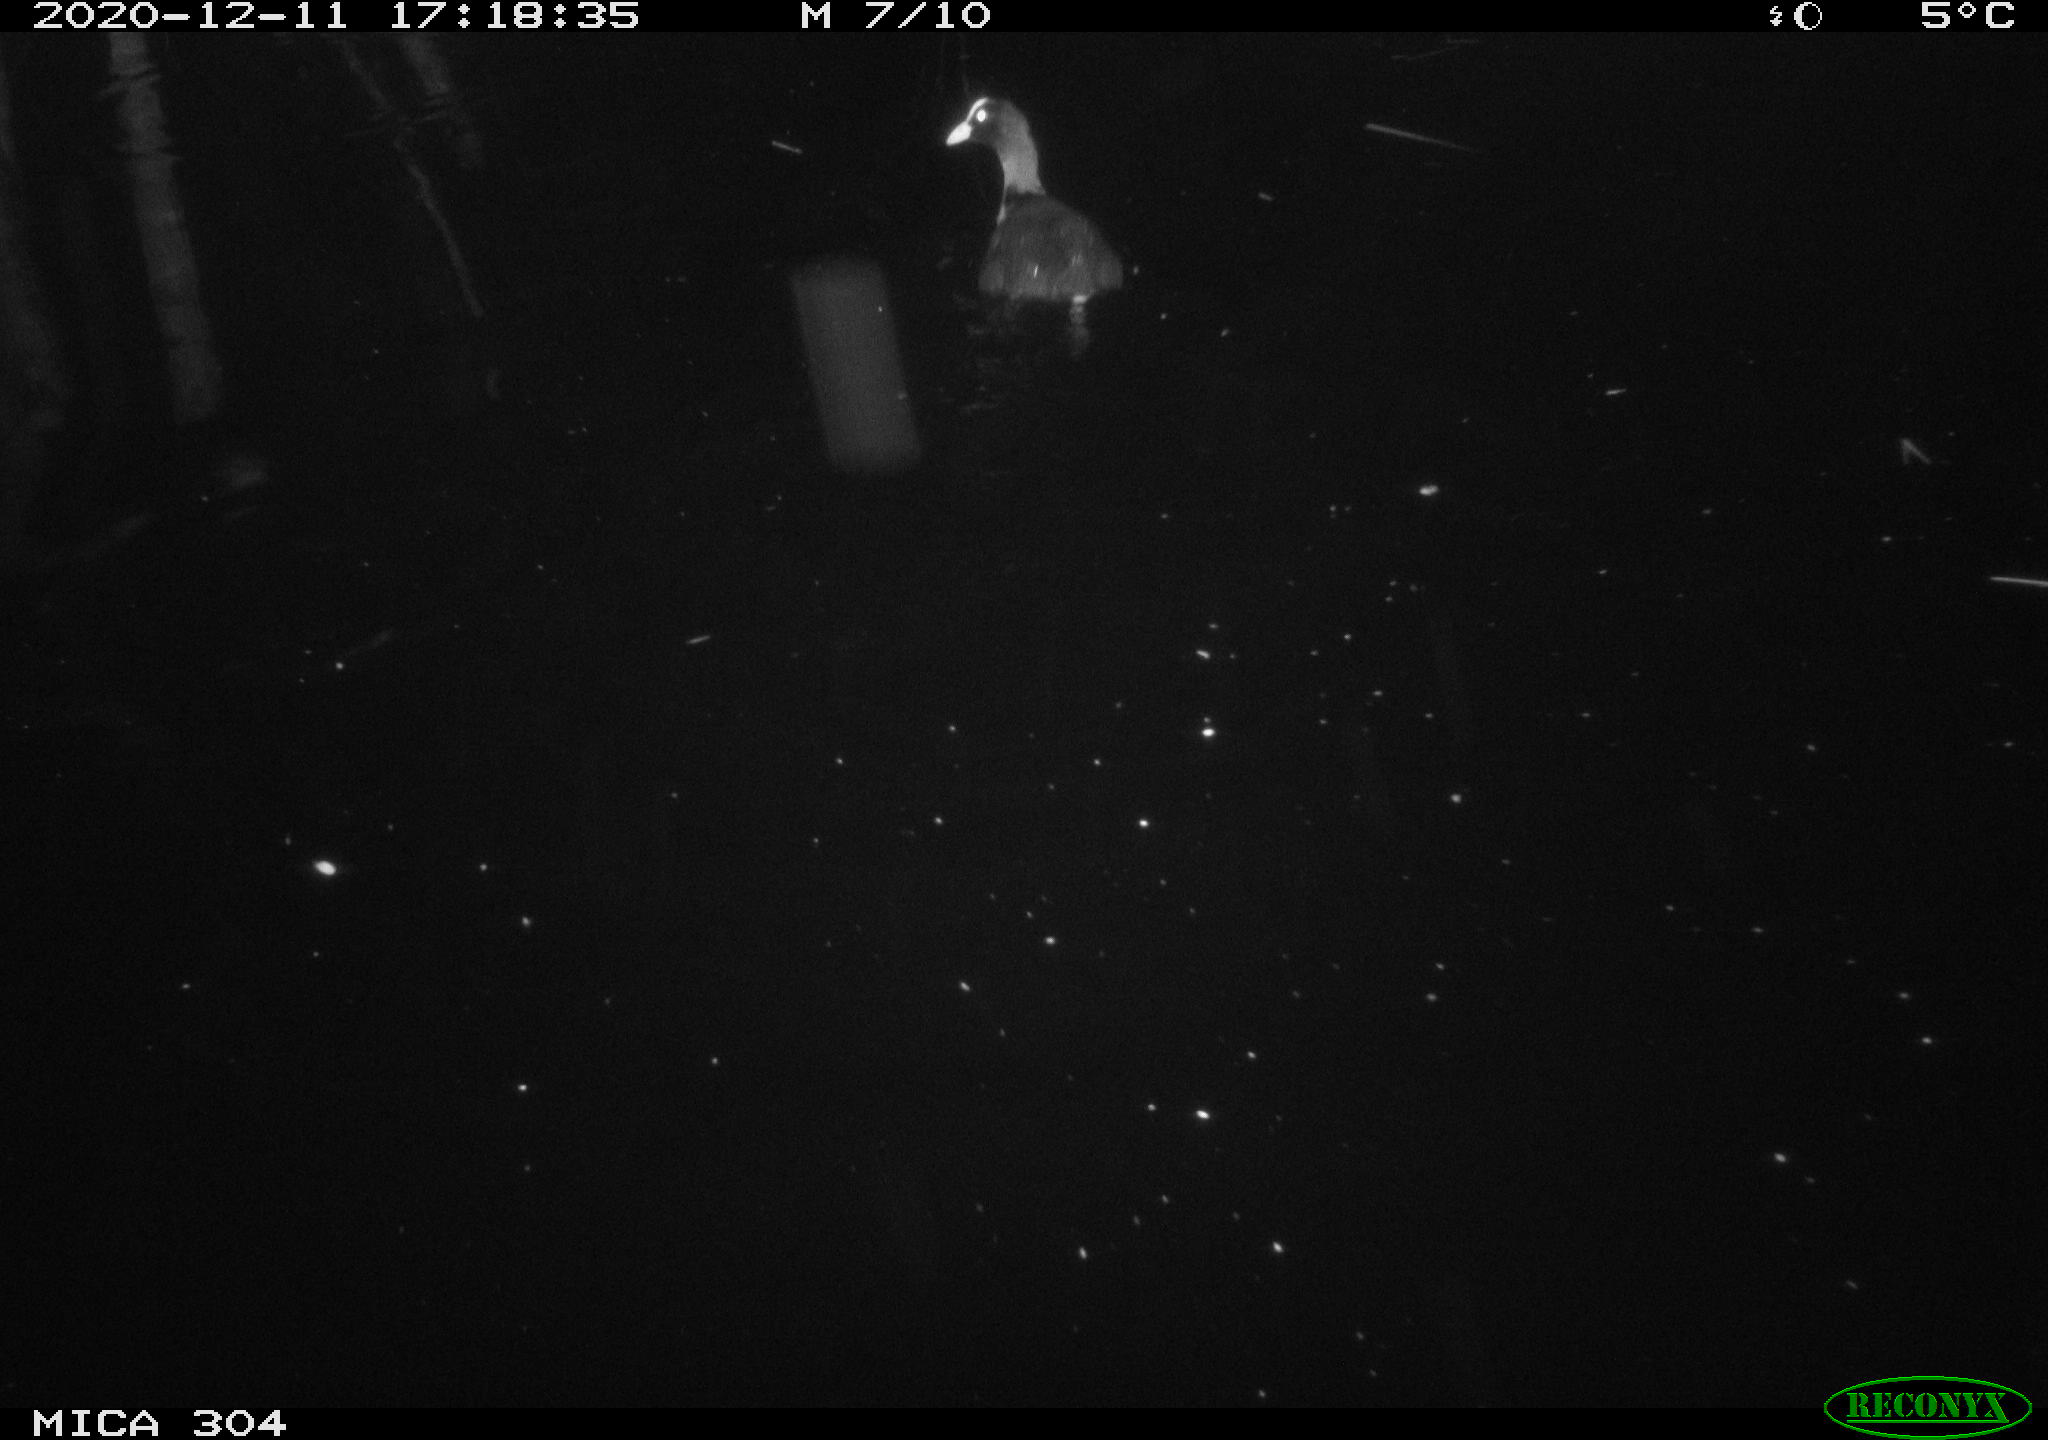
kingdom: Animalia
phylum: Chordata
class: Aves
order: Gruiformes
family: Rallidae
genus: Fulica
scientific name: Fulica atra
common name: Eurasian coot
